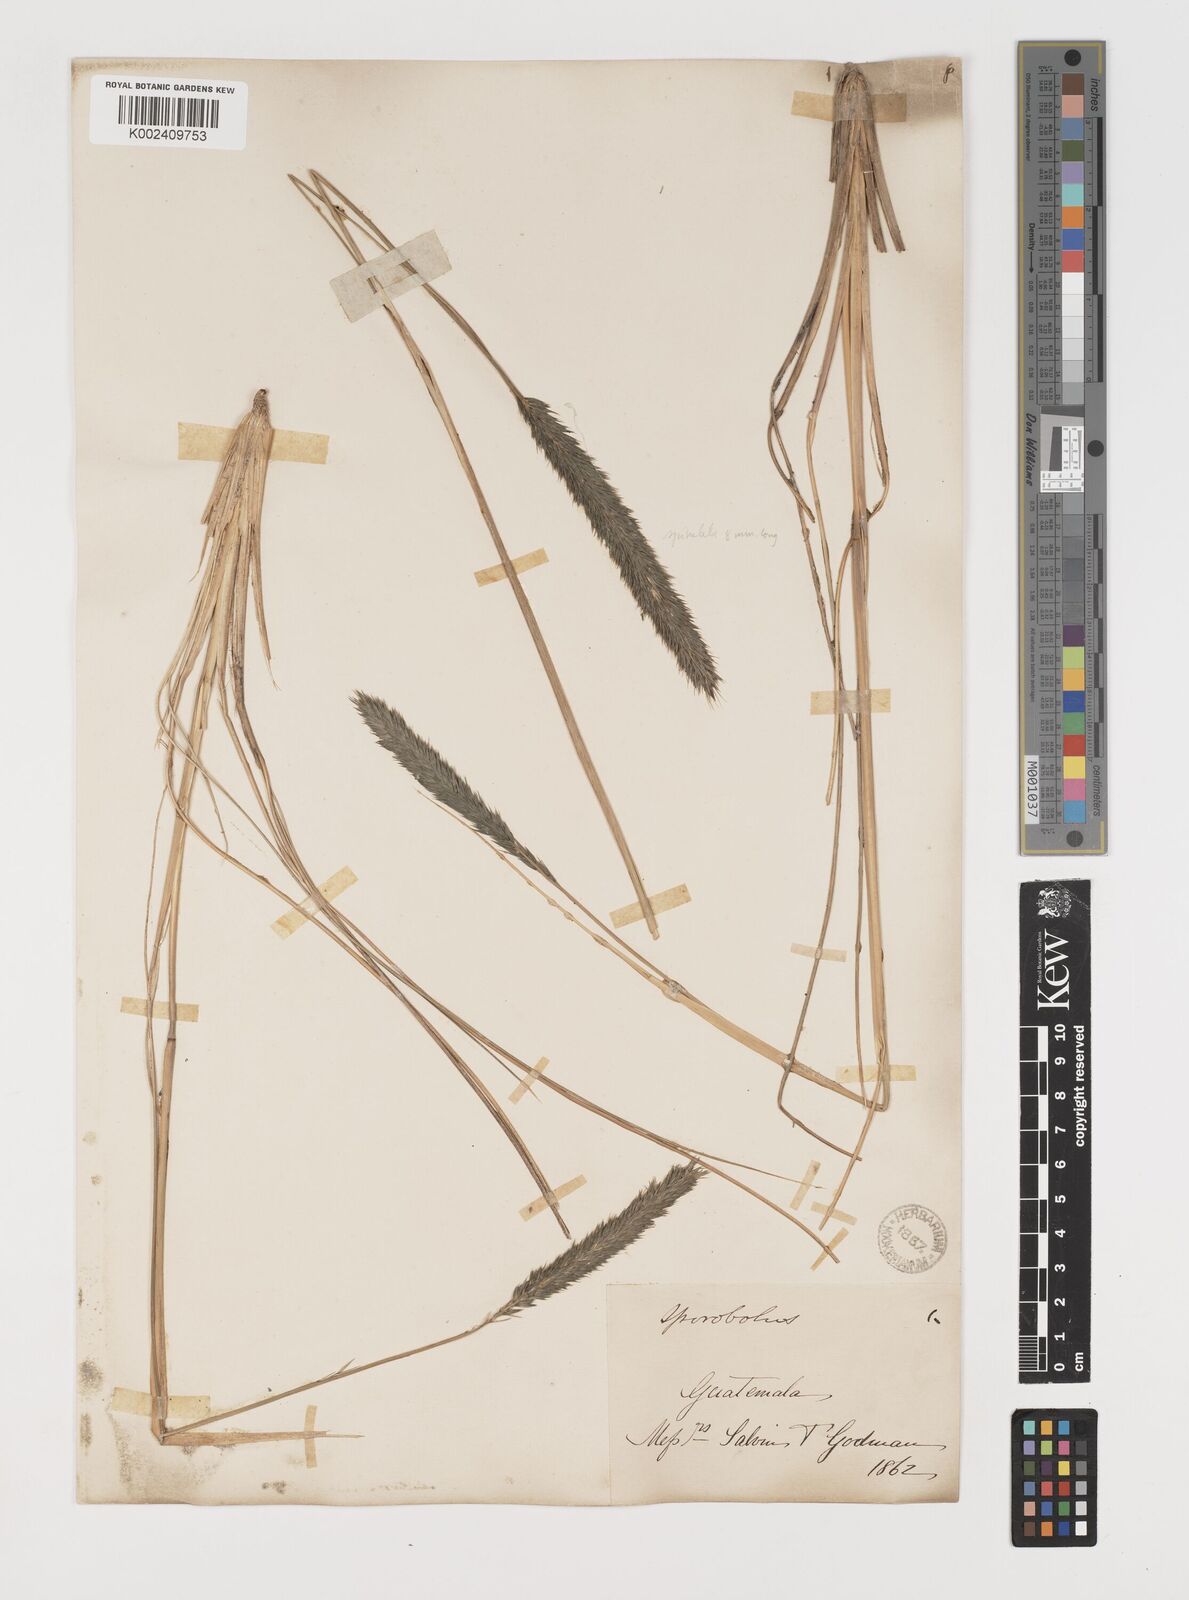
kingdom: Plantae
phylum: Tracheophyta
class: Liliopsida
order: Poales
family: Poaceae
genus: Muhlenbergia
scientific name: Muhlenbergia nigra
